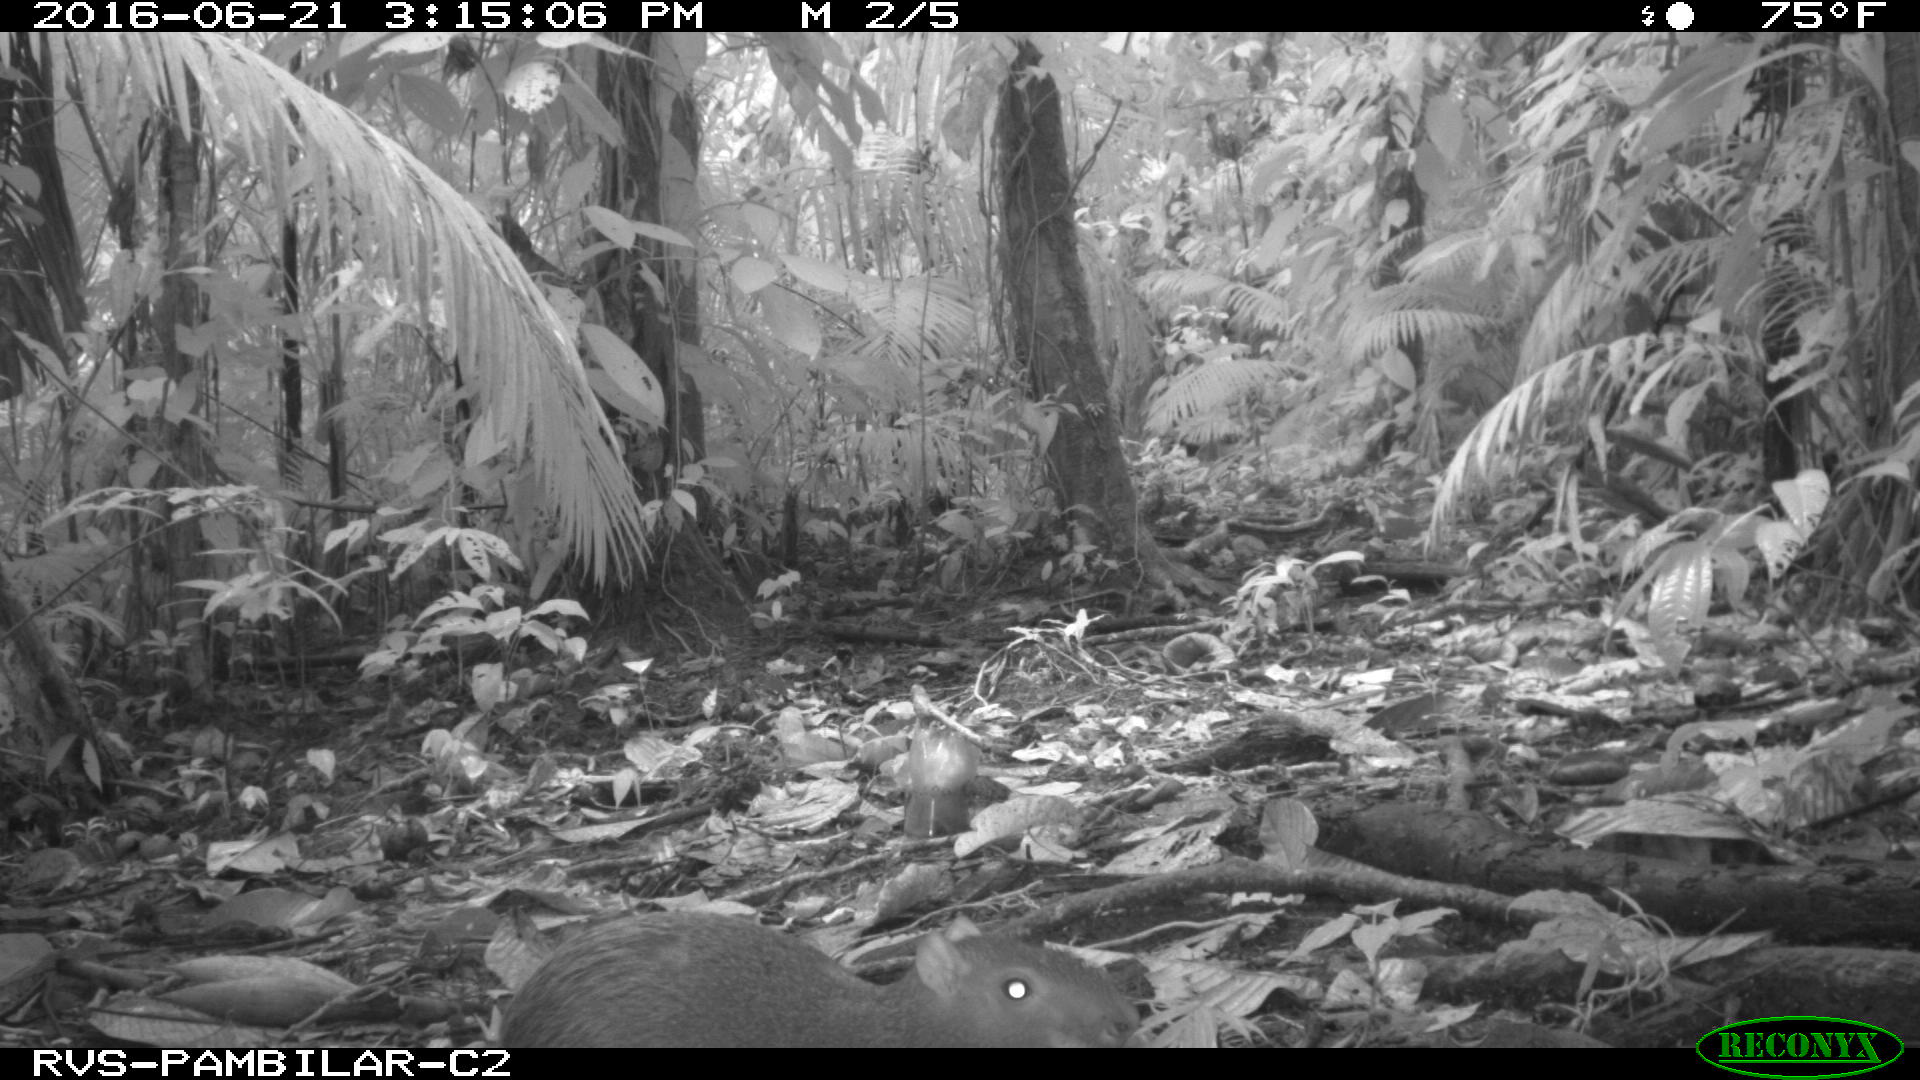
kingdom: Animalia
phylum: Chordata
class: Mammalia
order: Rodentia
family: Dasyproctidae
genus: Dasyprocta
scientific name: Dasyprocta punctata
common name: Central american agouti
